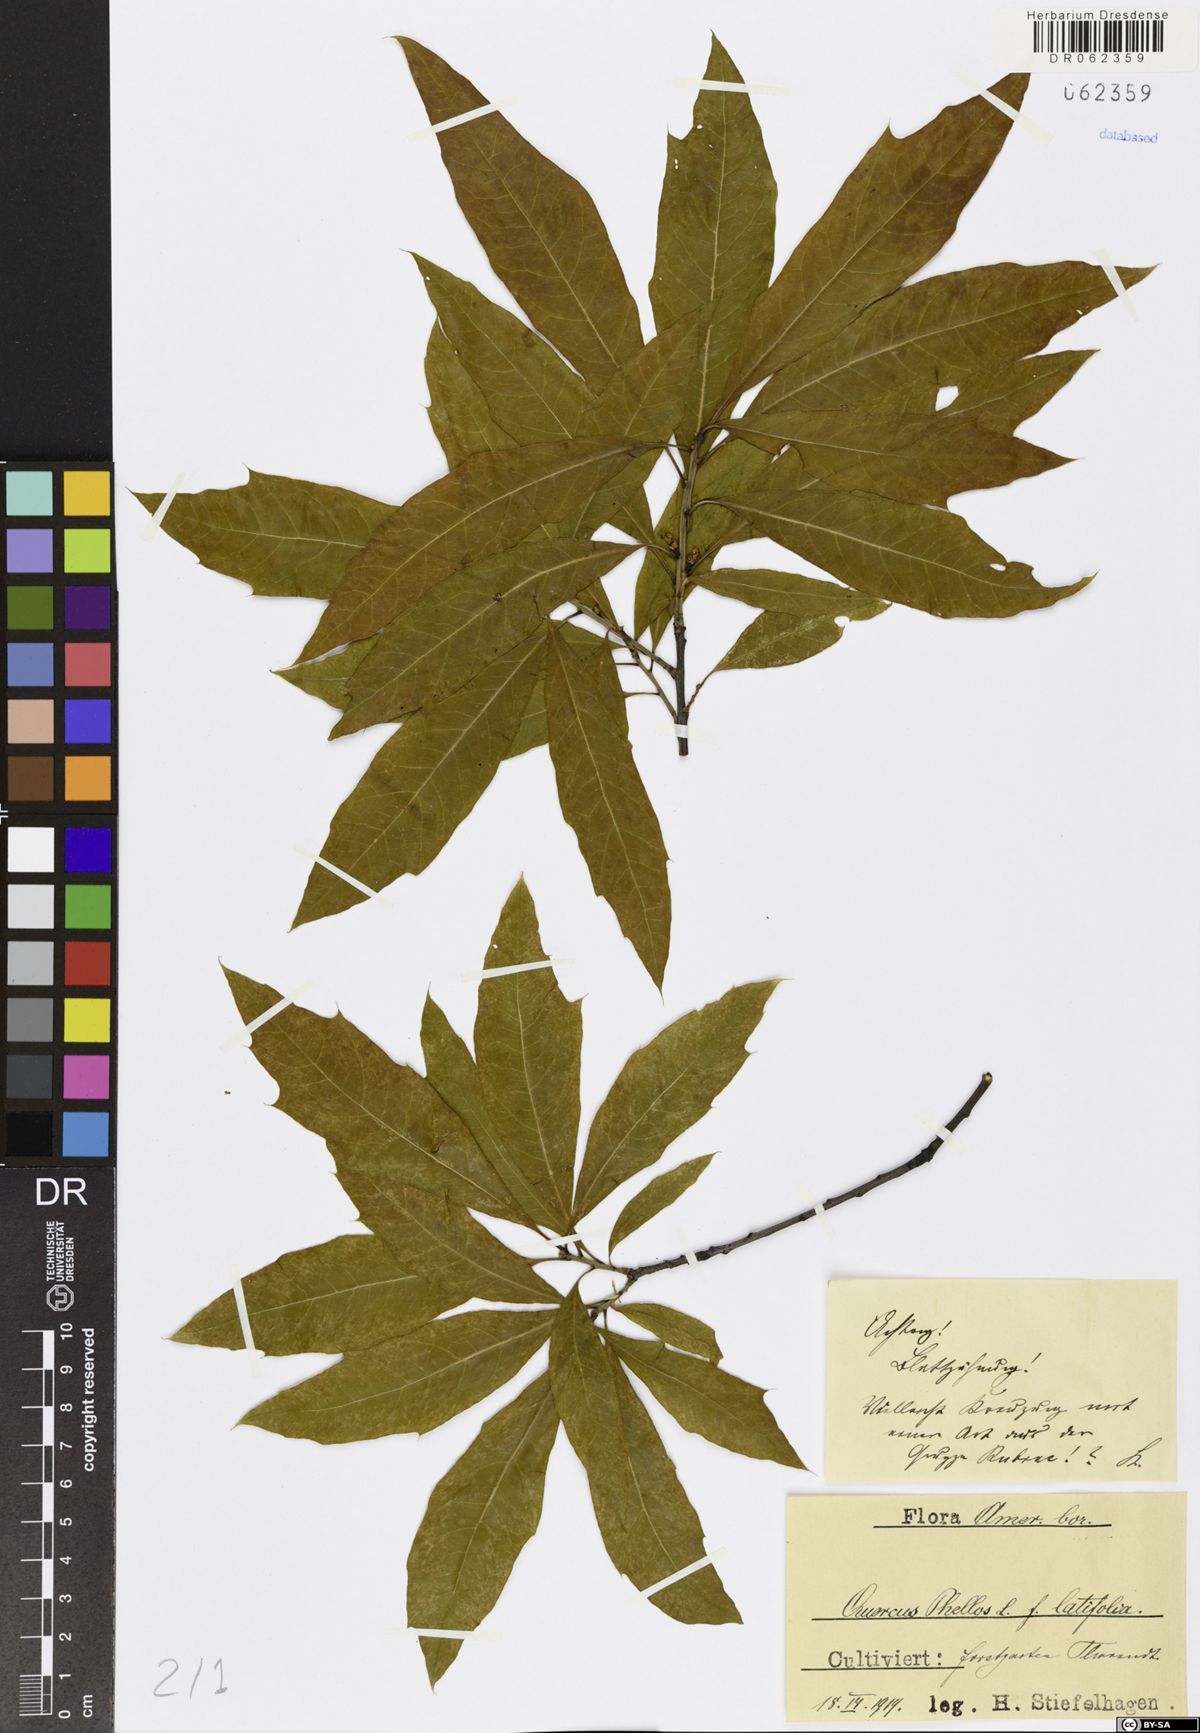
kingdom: Plantae
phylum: Tracheophyta
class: Magnoliopsida
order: Fagales
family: Fagaceae
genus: Quercus
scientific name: Quercus phellos
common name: Willow oak
